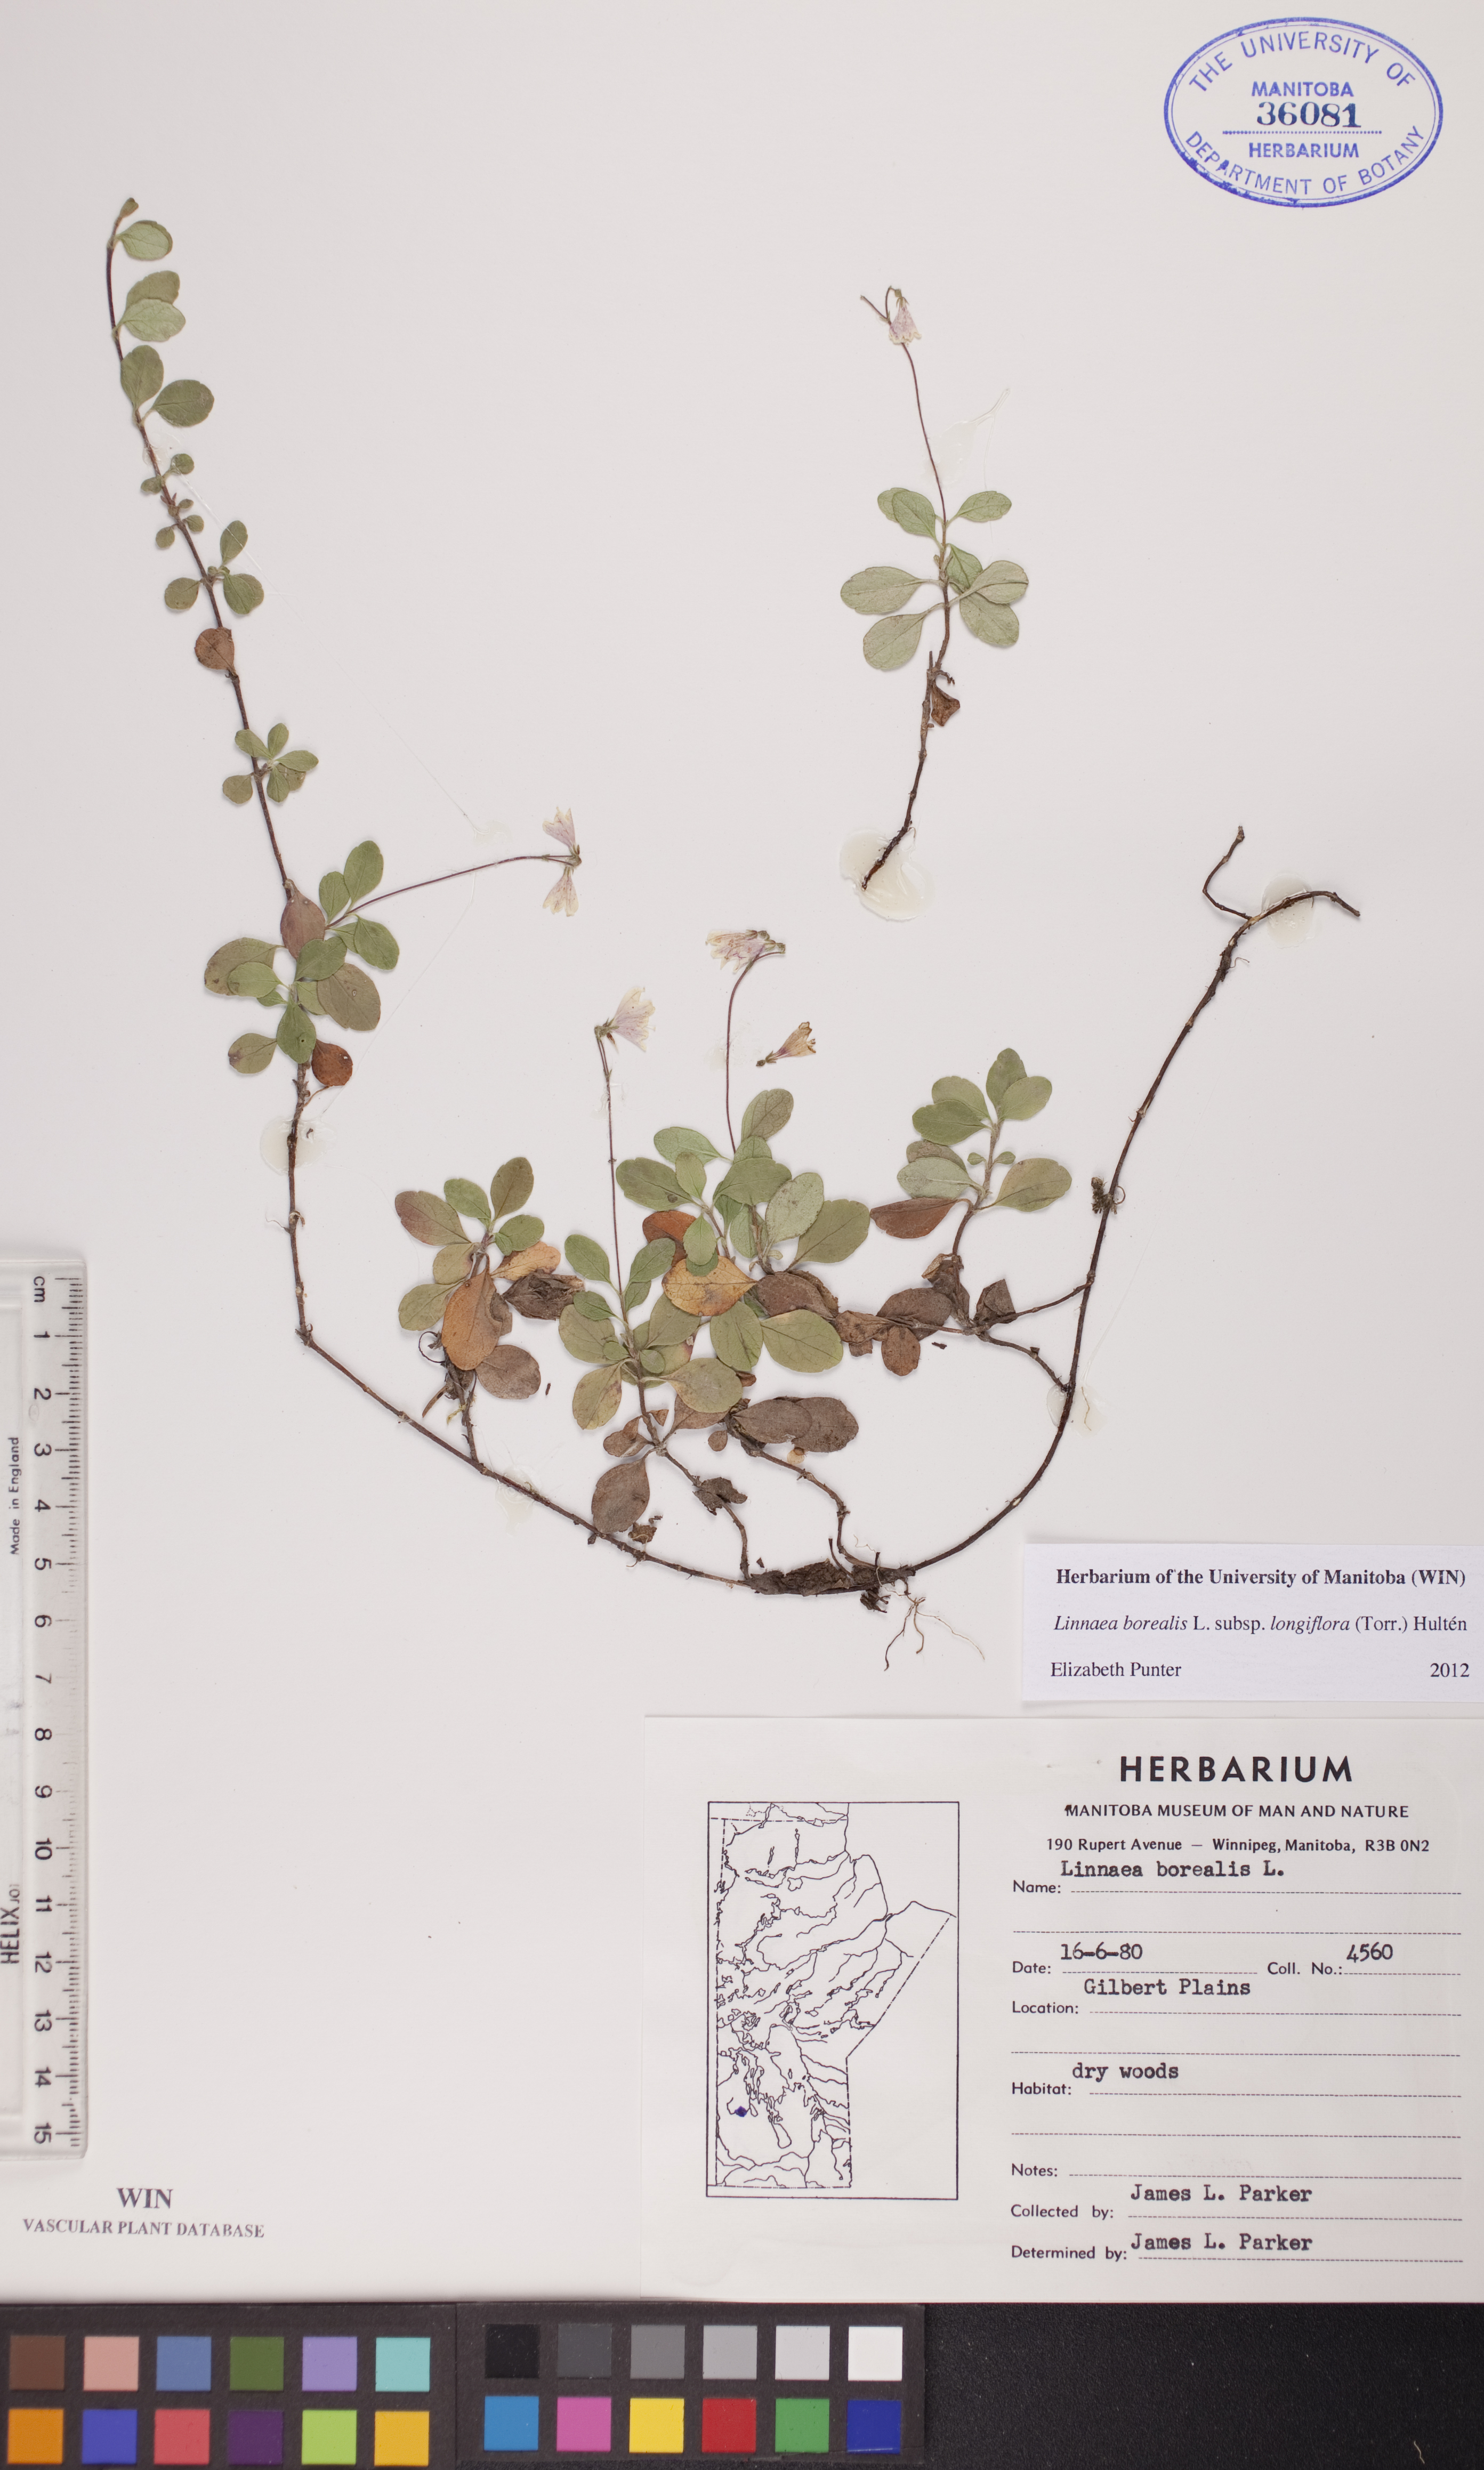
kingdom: Plantae
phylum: Tracheophyta
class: Magnoliopsida
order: Dipsacales
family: Caprifoliaceae
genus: Linnaea
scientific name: Linnaea borealis
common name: Twinflower
